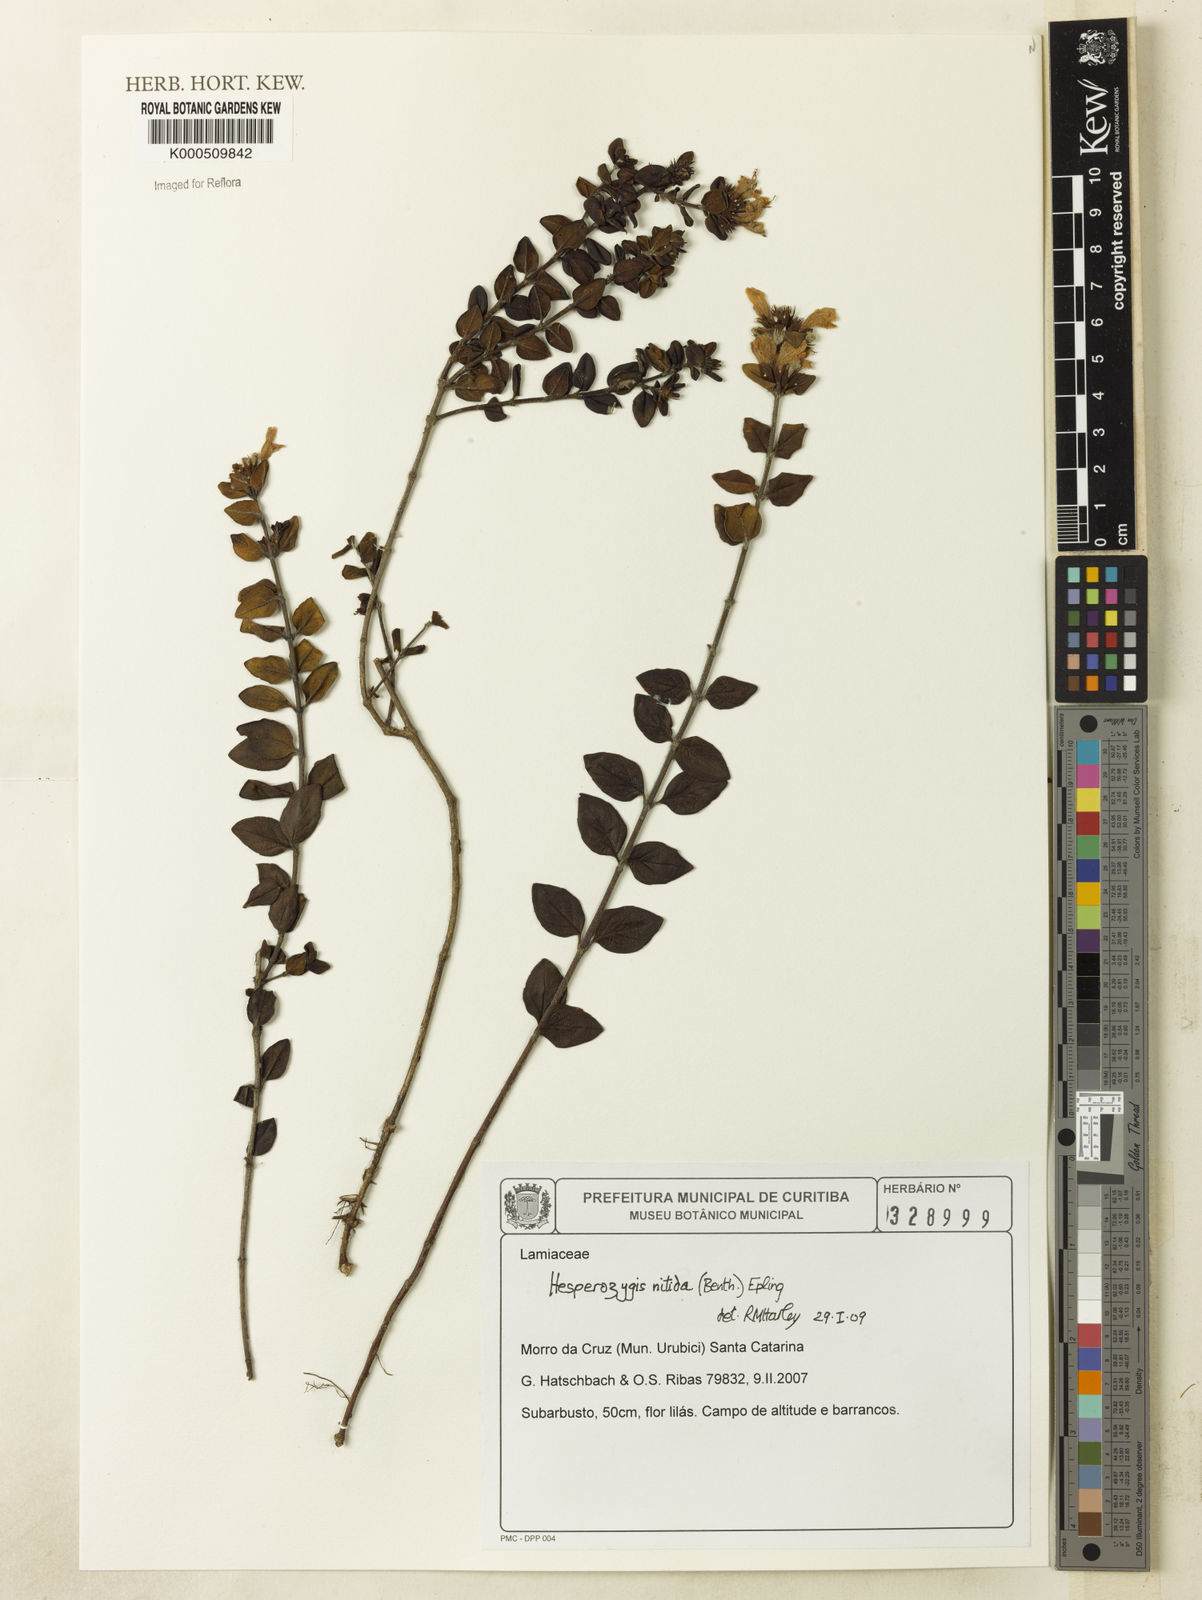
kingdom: Plantae
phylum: Tracheophyta
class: Magnoliopsida
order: Lamiales
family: Lamiaceae
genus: Hesperozygis
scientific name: Hesperozygis nitida
